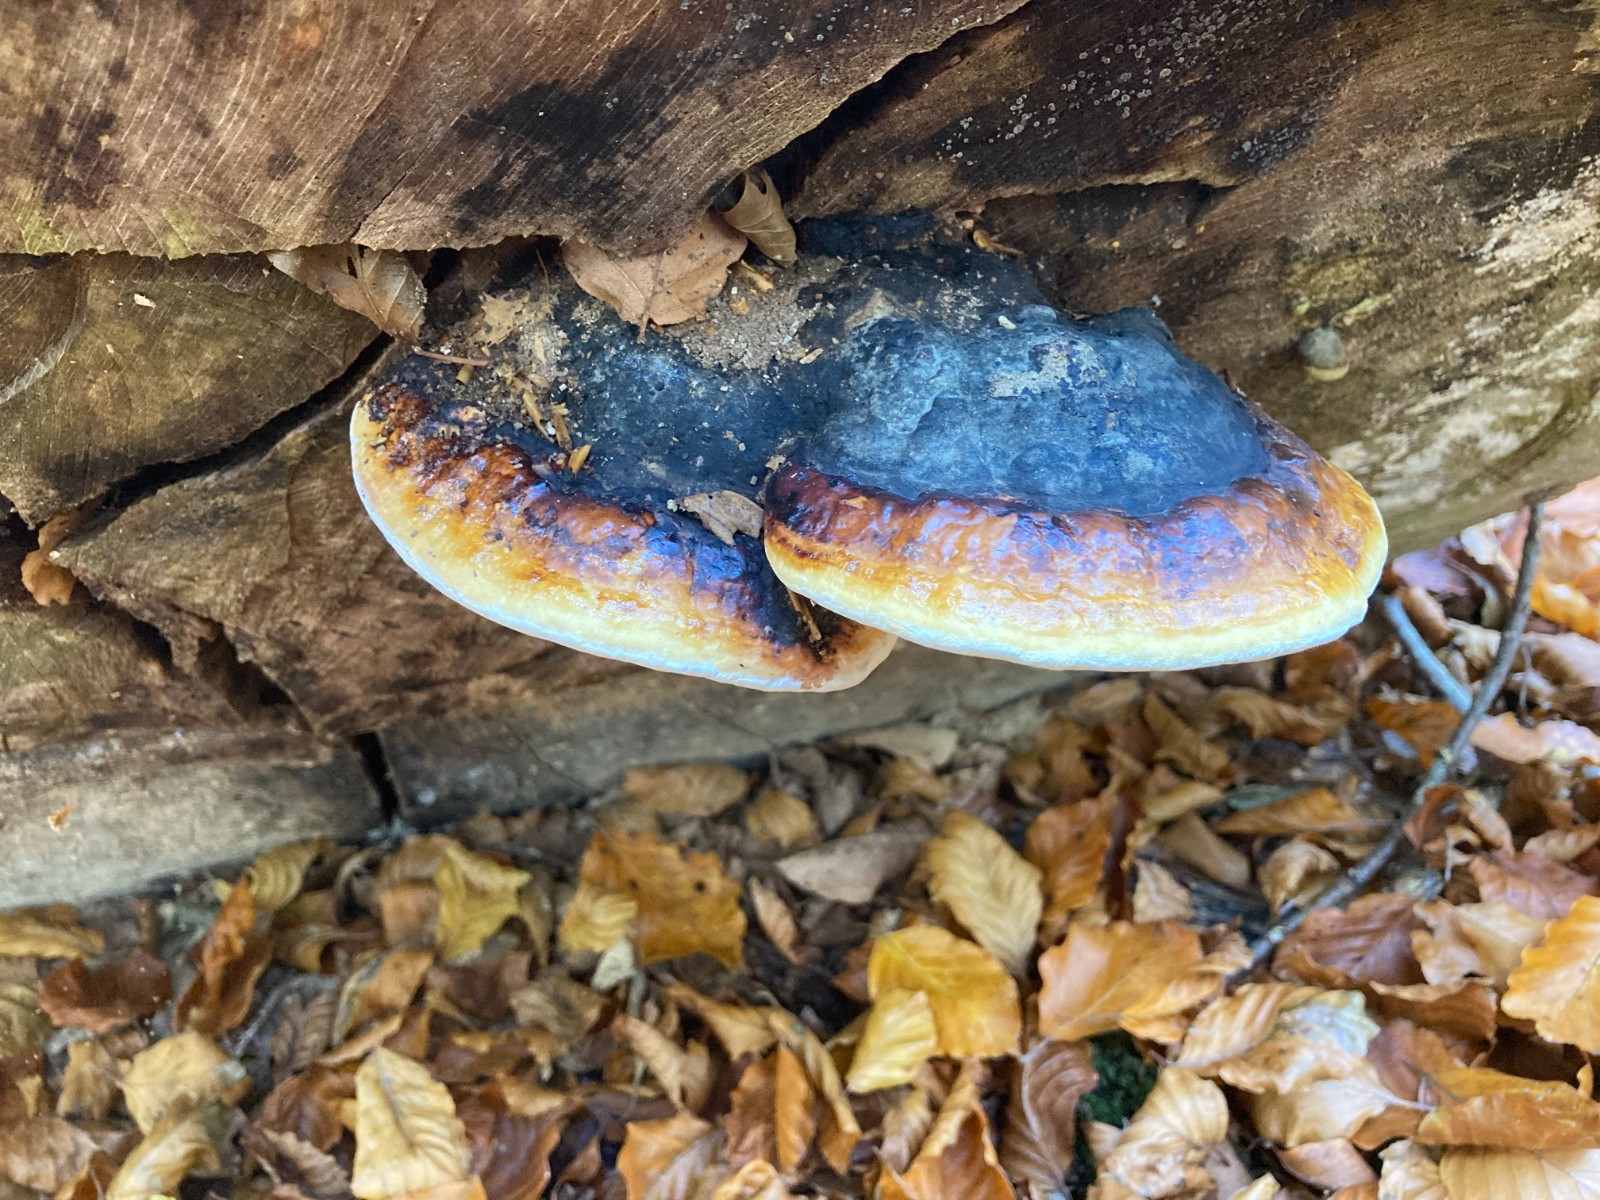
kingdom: Fungi
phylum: Basidiomycota
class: Agaricomycetes
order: Polyporales
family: Fomitopsidaceae
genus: Fomitopsis
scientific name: Fomitopsis pinicola
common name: randbæltet hovporesvamp
